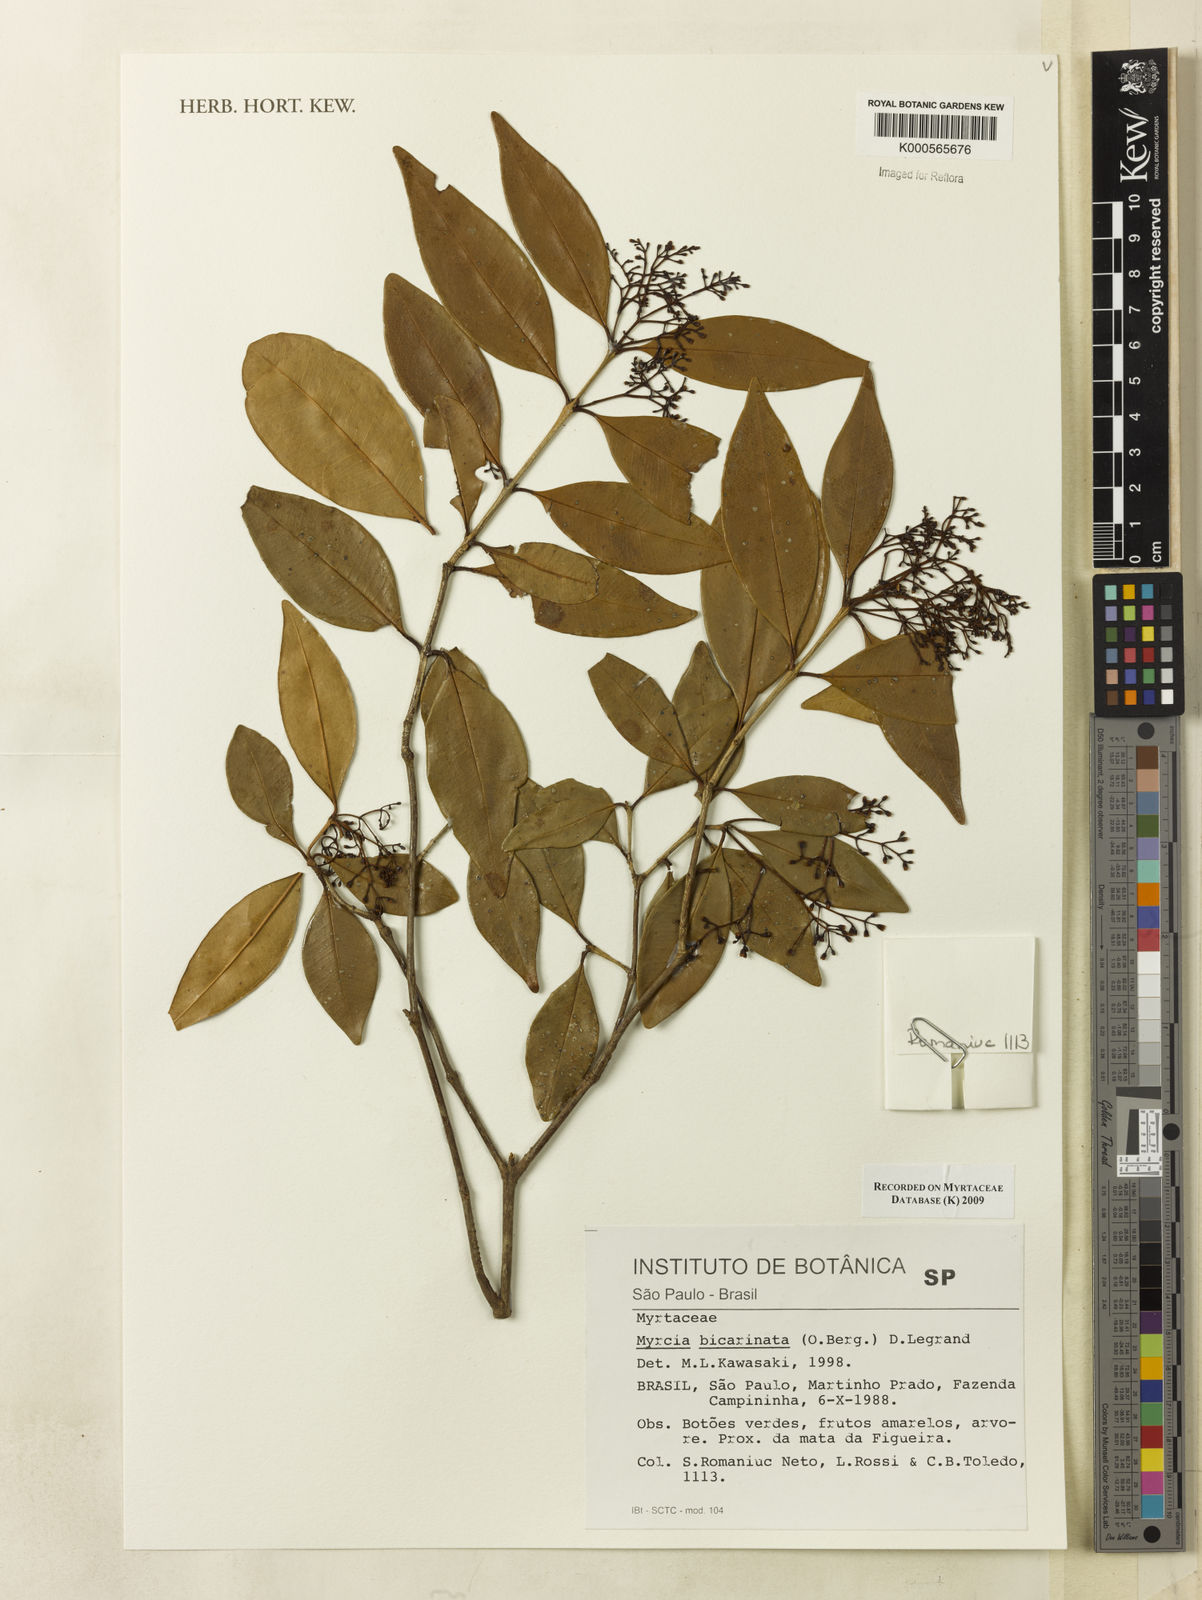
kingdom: Plantae
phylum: Tracheophyta
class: Magnoliopsida
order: Myrtales
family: Myrtaceae
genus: Myrcia
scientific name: Myrcia costeira
